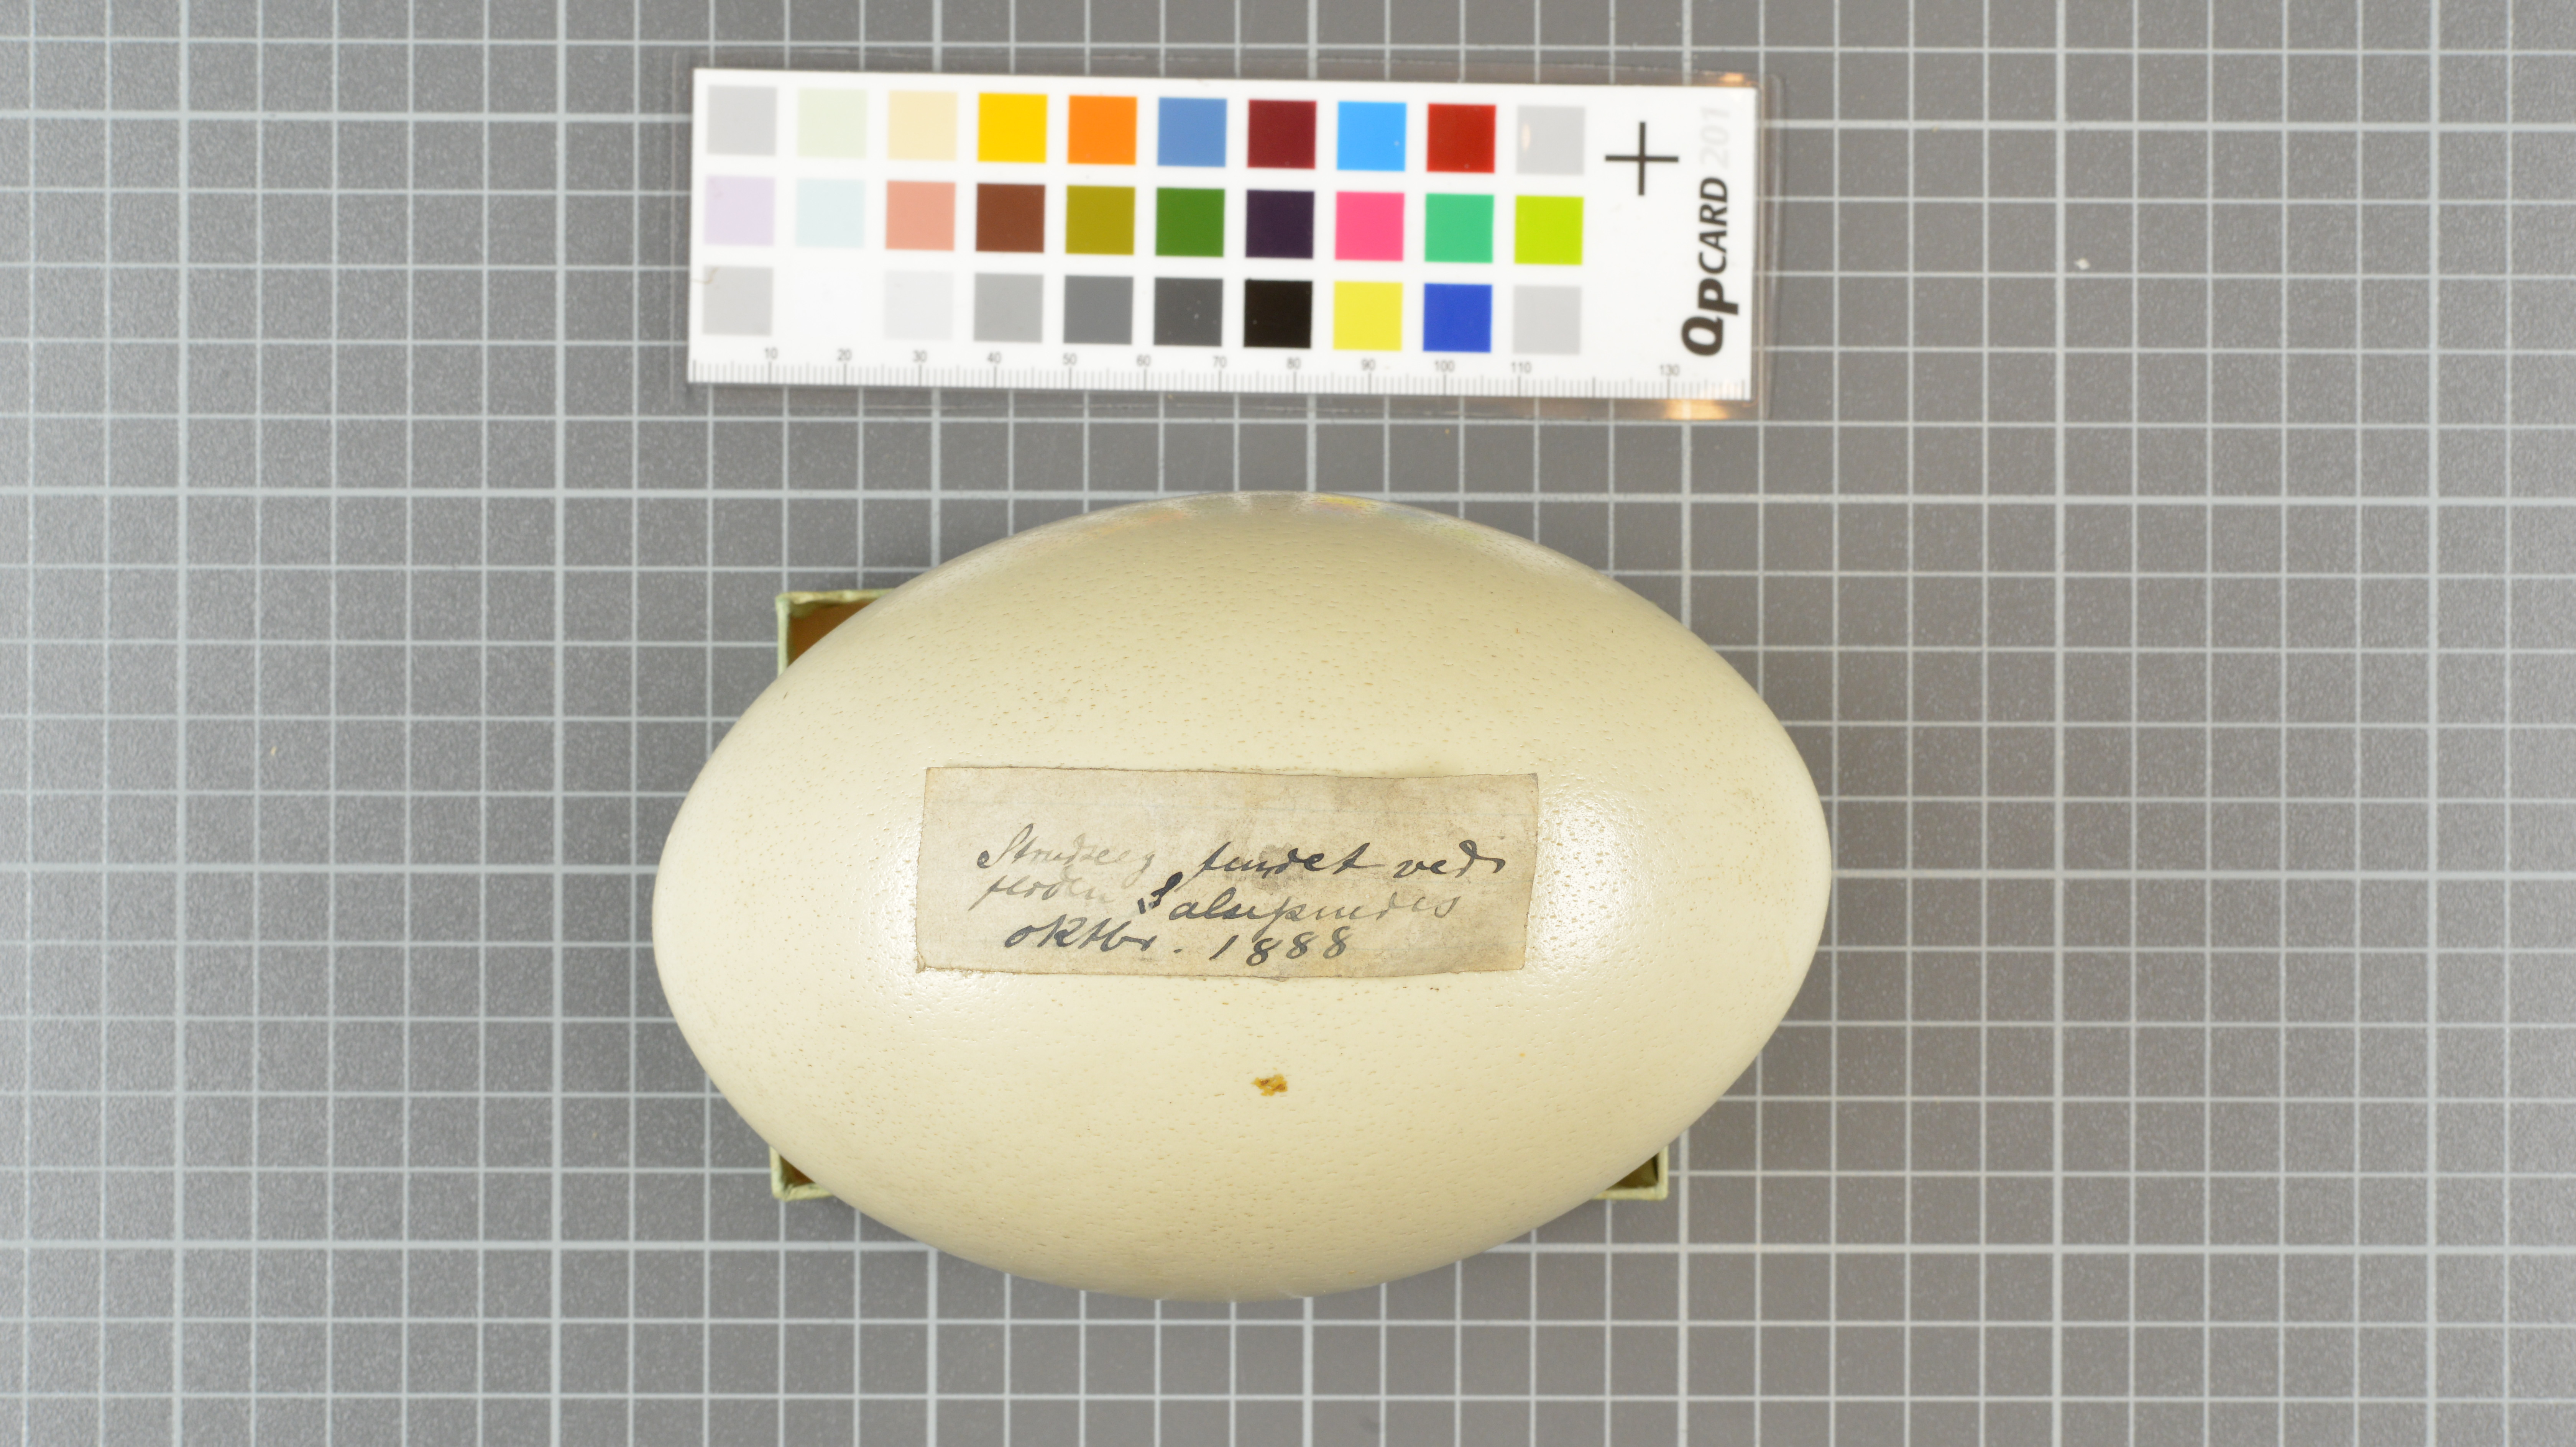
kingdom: Animalia
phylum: Chordata
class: Aves
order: Struthioniformes
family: Struthionidae
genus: Struthio
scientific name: Struthio camelus
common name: Common ostrich
